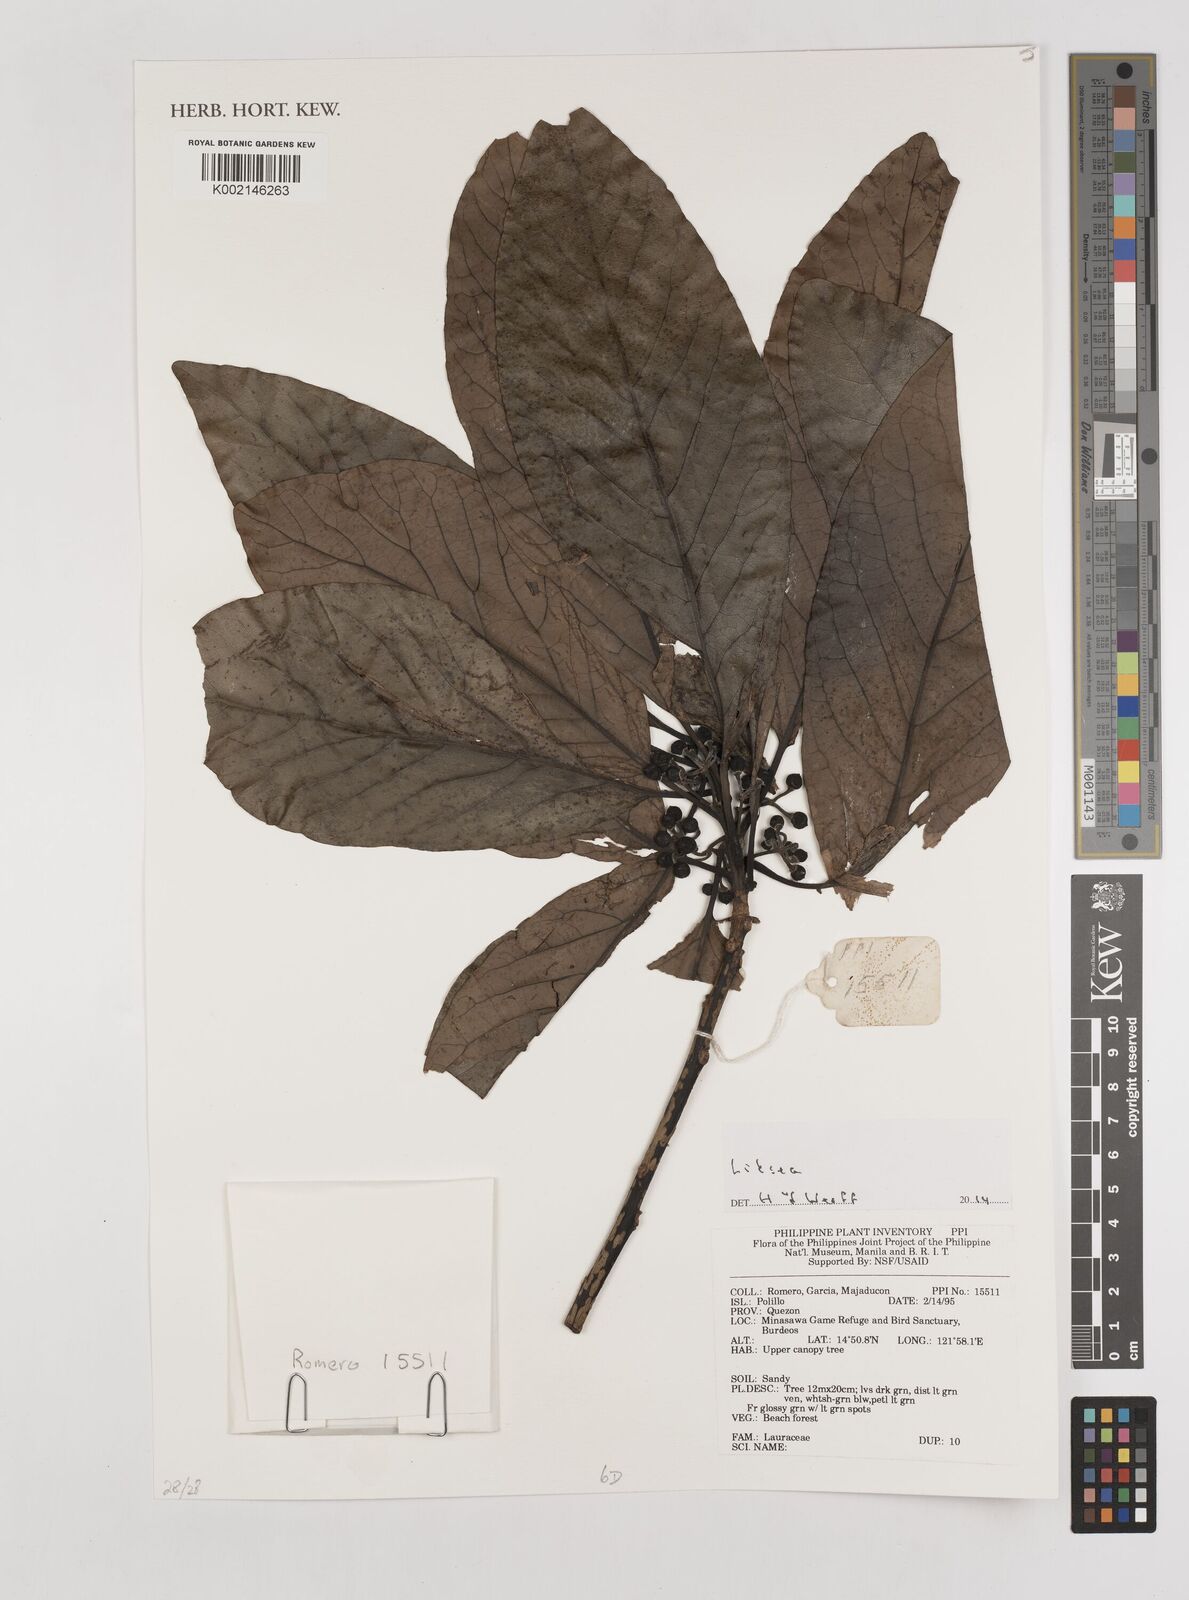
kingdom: Plantae
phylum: Tracheophyta
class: Magnoliopsida
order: Laurales
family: Lauraceae
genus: Litsea
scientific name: Litsea
